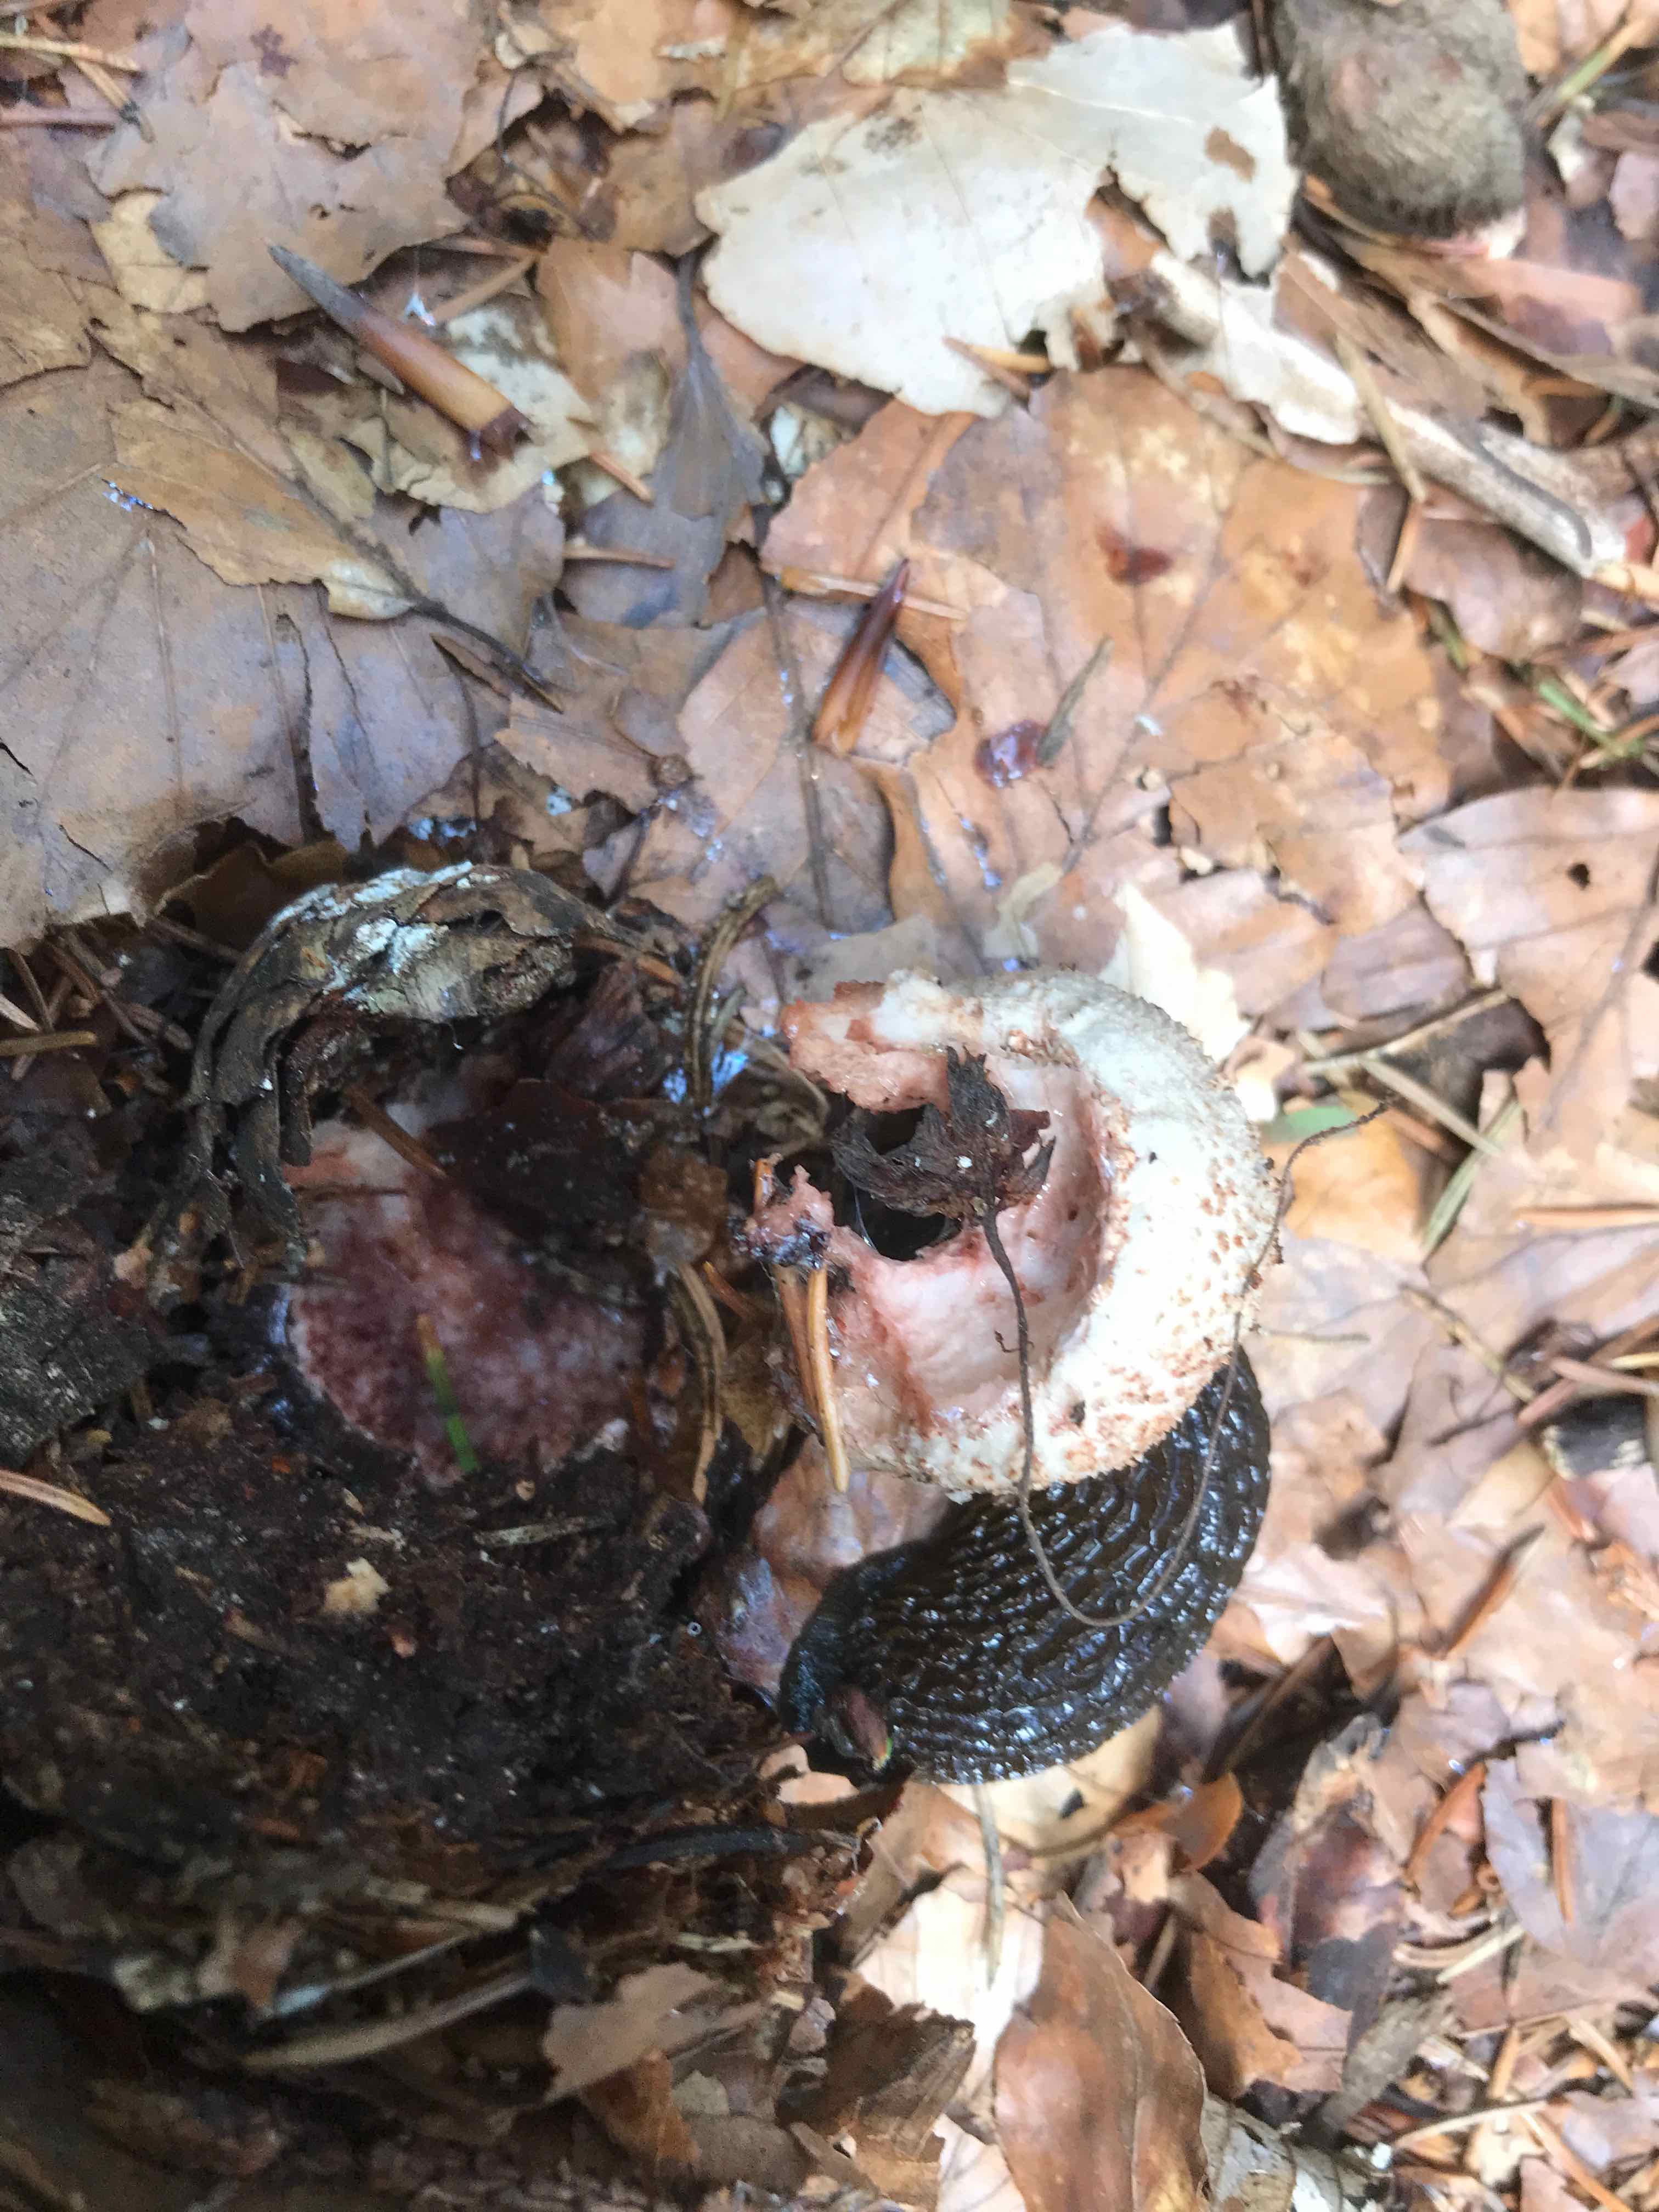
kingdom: Fungi
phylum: Basidiomycota
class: Agaricomycetes
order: Agaricales
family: Amanitaceae
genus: Amanita
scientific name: Amanita rubescens
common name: rødmende fluesvamp
